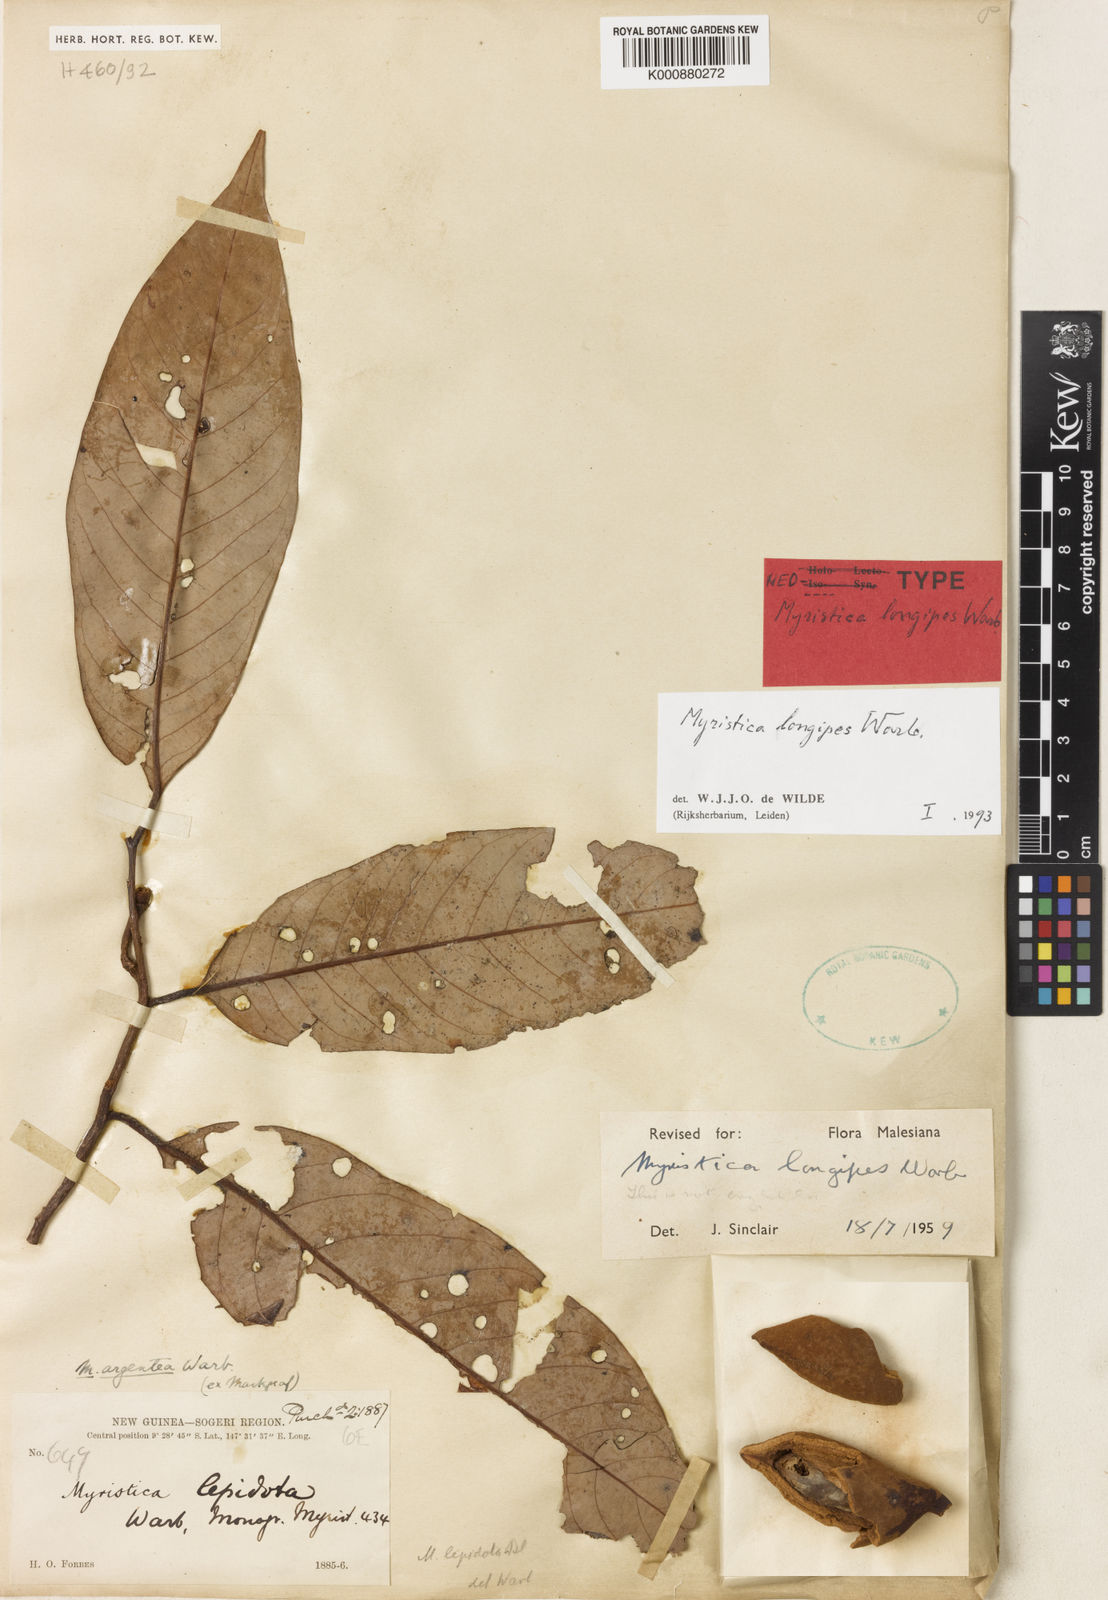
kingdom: Plantae
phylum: Tracheophyta
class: Magnoliopsida
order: Magnoliales
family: Myristicaceae
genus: Myristica
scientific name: Myristica longipes
